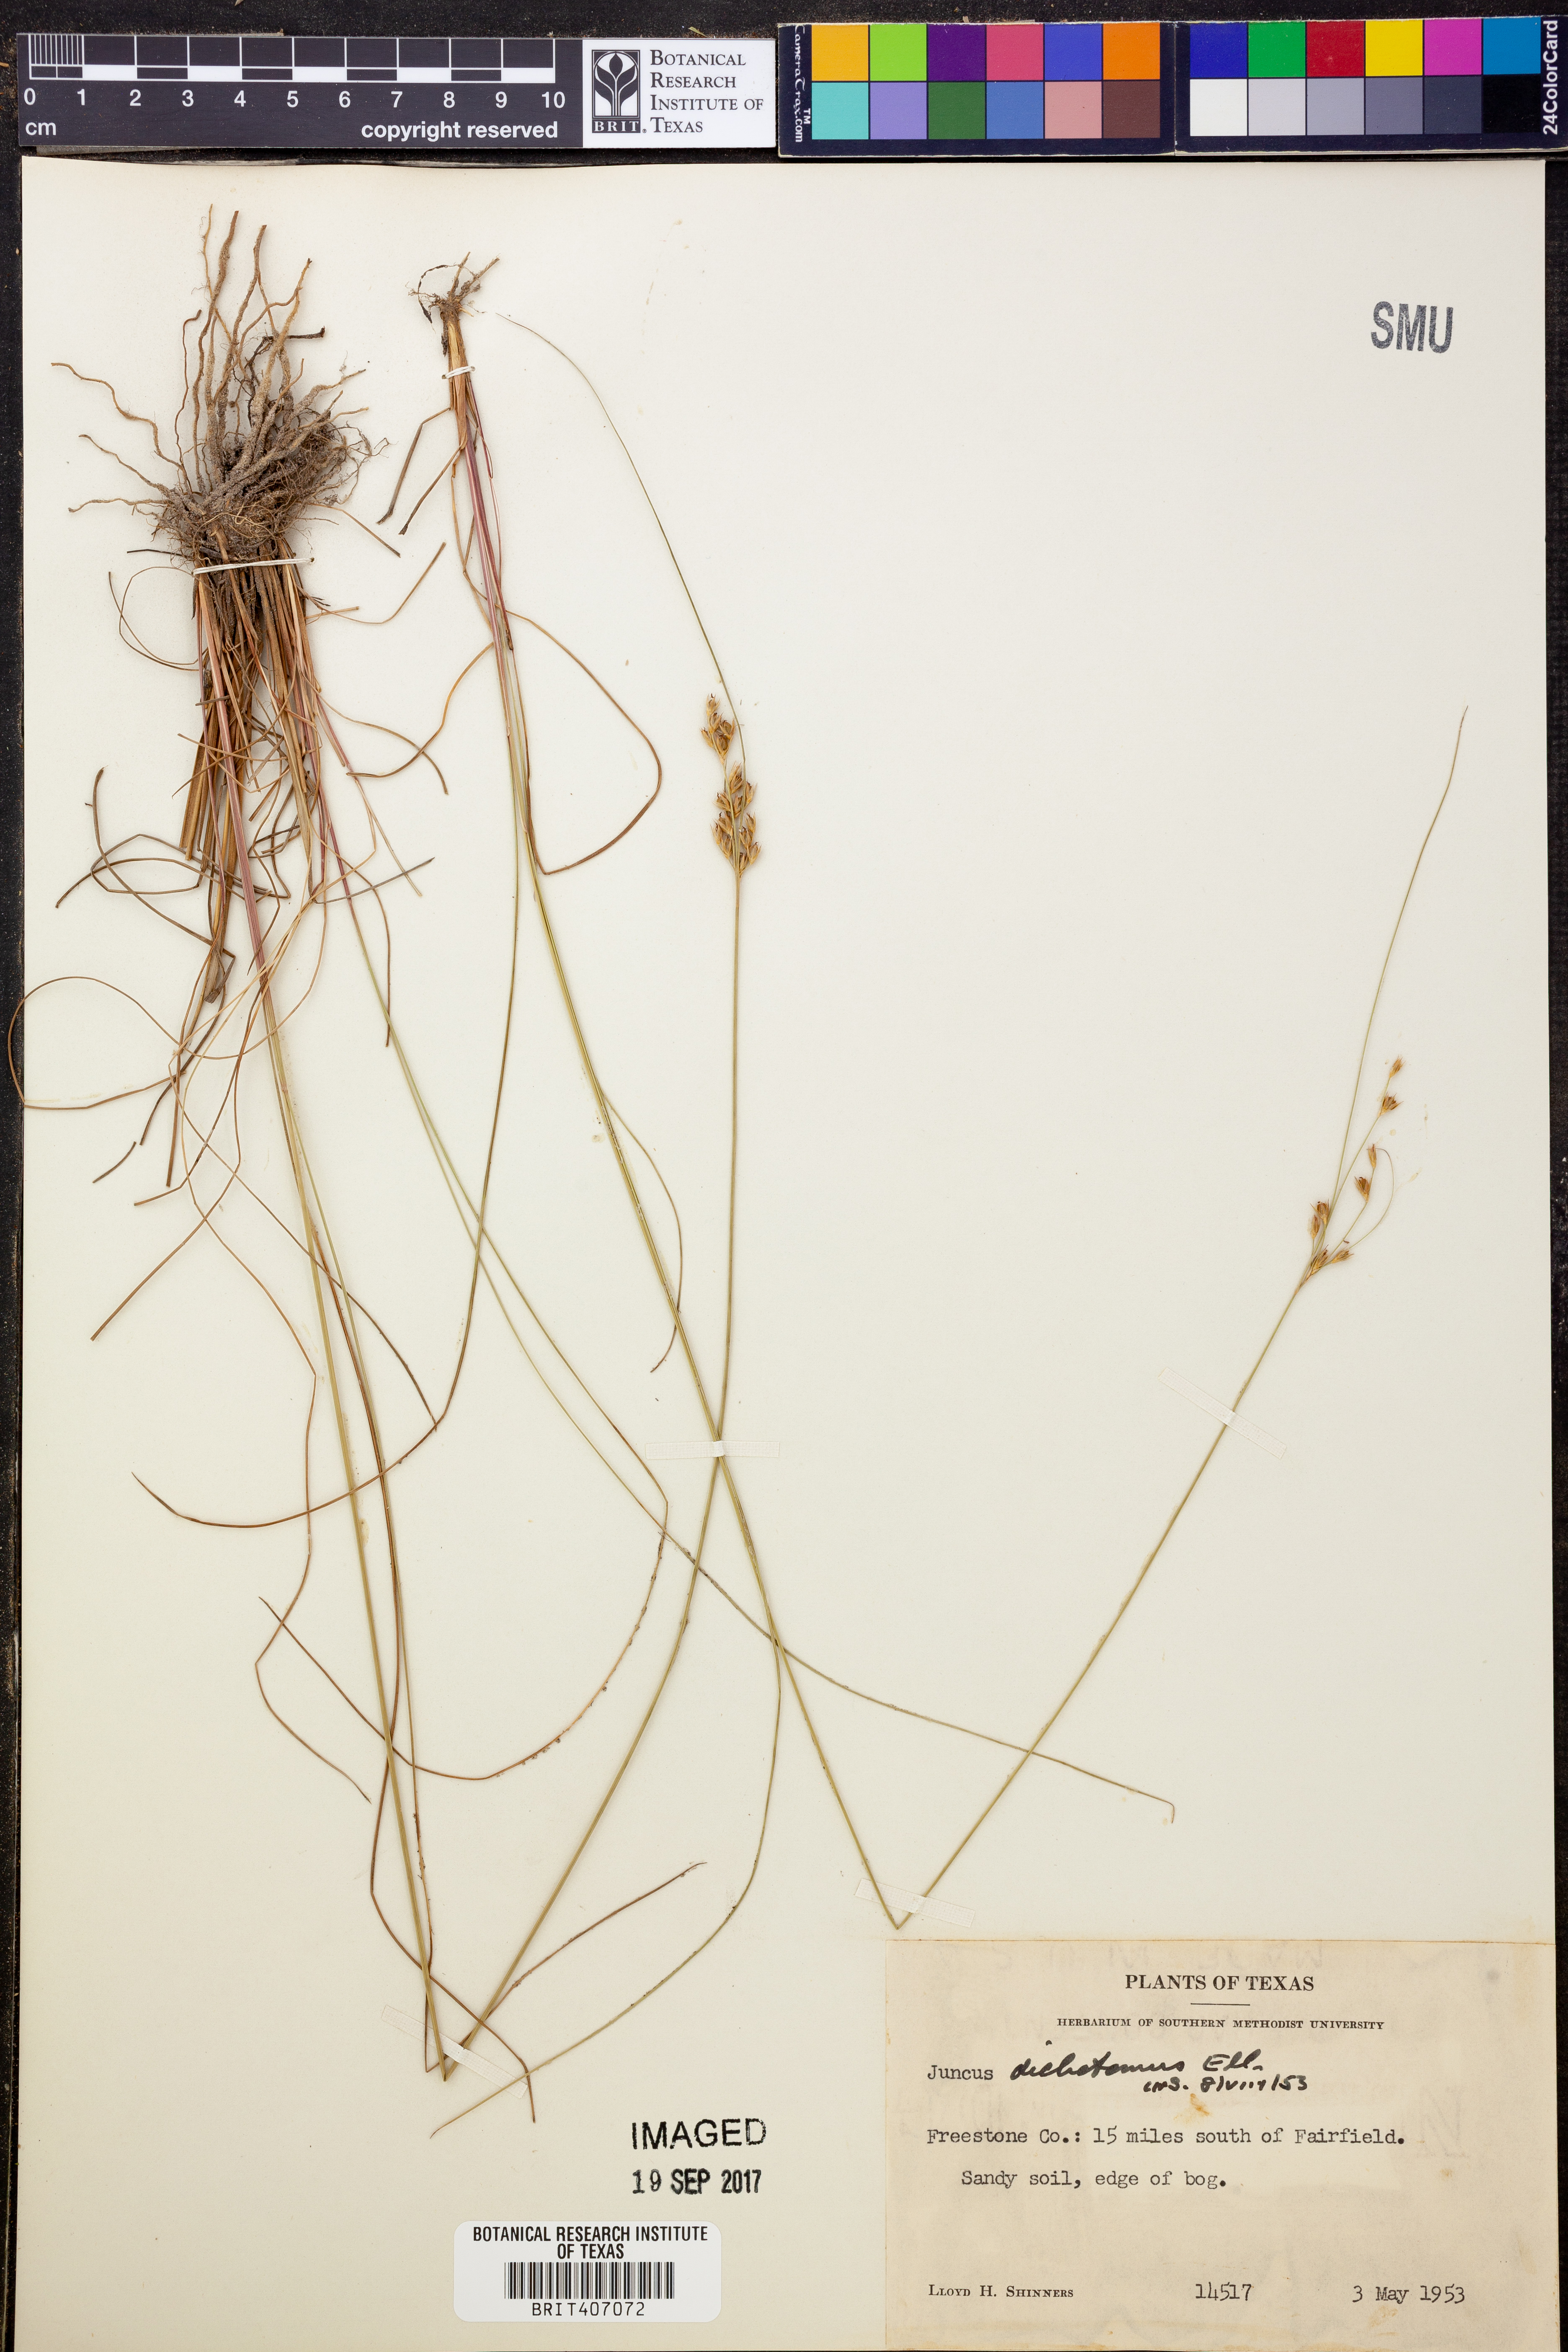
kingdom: Plantae
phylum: Tracheophyta
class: Liliopsida
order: Poales
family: Juncaceae
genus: Juncus
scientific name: Juncus dichotomus
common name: Forked rush
